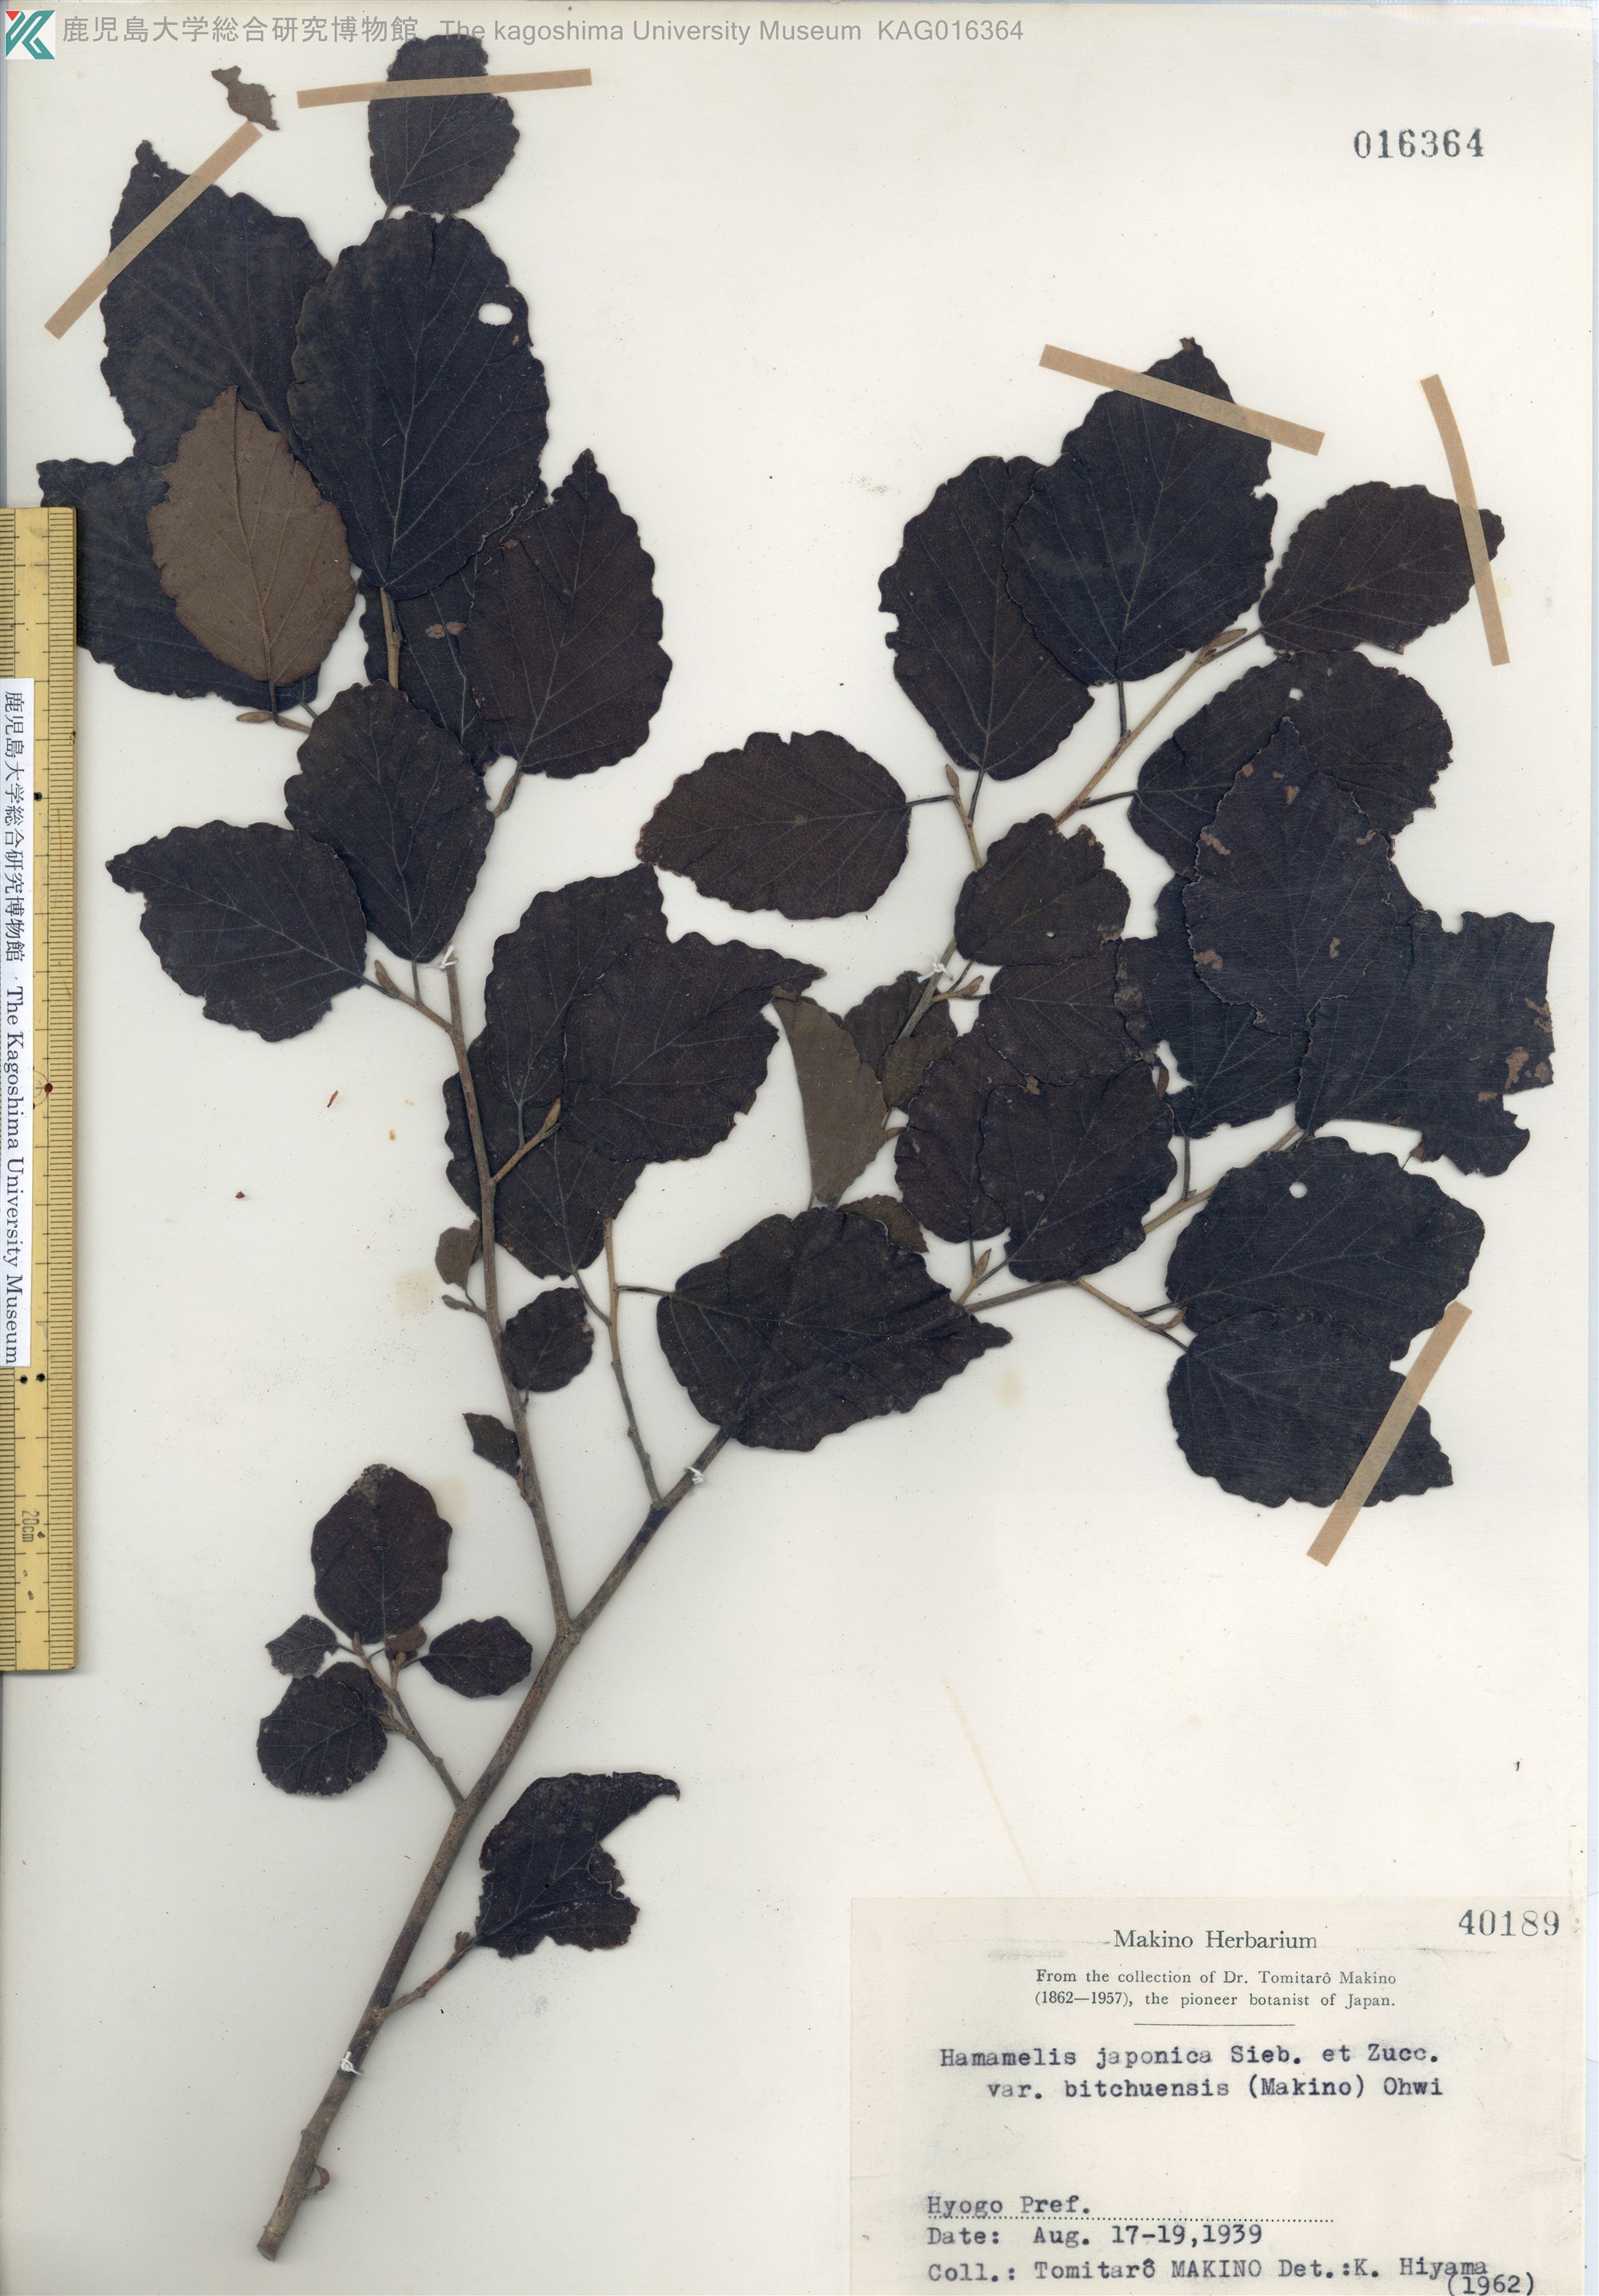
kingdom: Plantae
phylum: Tracheophyta
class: Magnoliopsida
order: Saxifragales
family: Hamamelidaceae
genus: Hamamelis
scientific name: Hamamelis japonica
